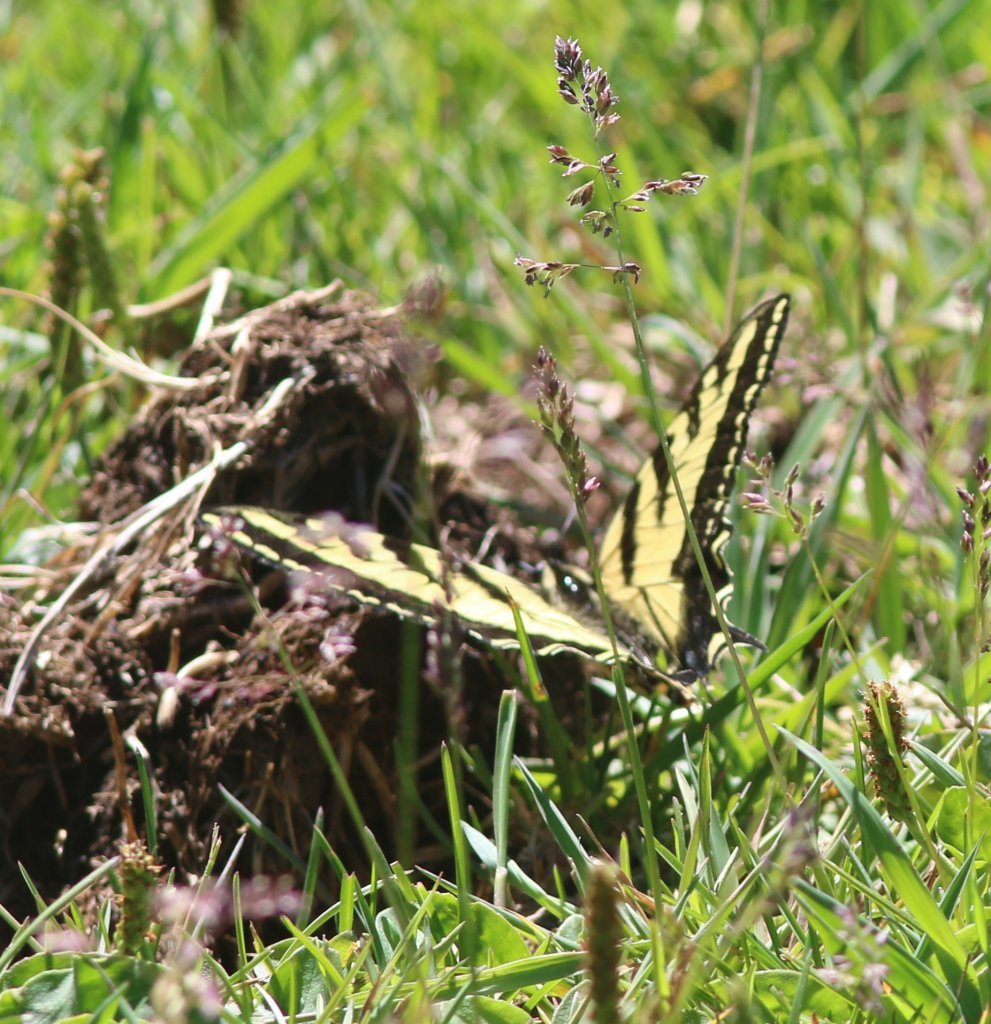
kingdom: Animalia
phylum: Arthropoda
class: Insecta
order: Lepidoptera
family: Papilionidae
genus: Pterourus
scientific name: Pterourus rutulus
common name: Western Tiger Swallowtail
